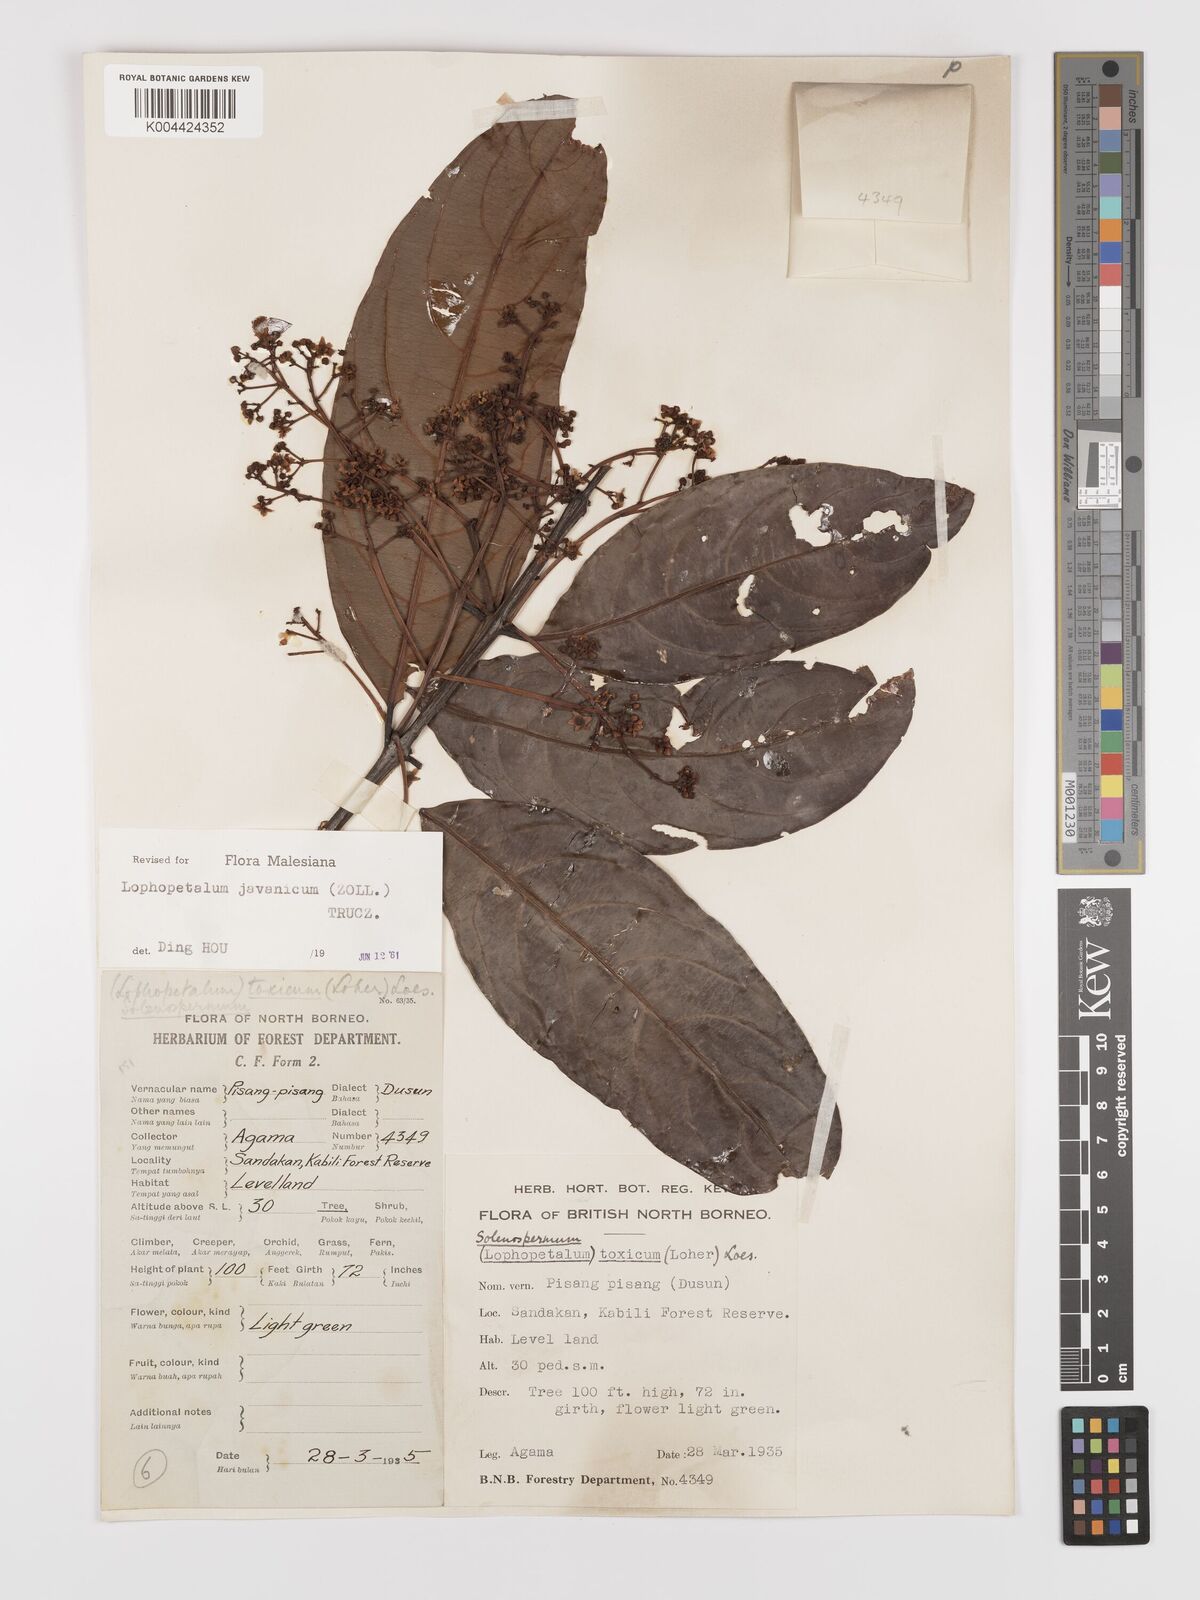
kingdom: Plantae
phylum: Tracheophyta
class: Magnoliopsida
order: Celastrales
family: Celastraceae
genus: Lophopetalum
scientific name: Lophopetalum javanicum
